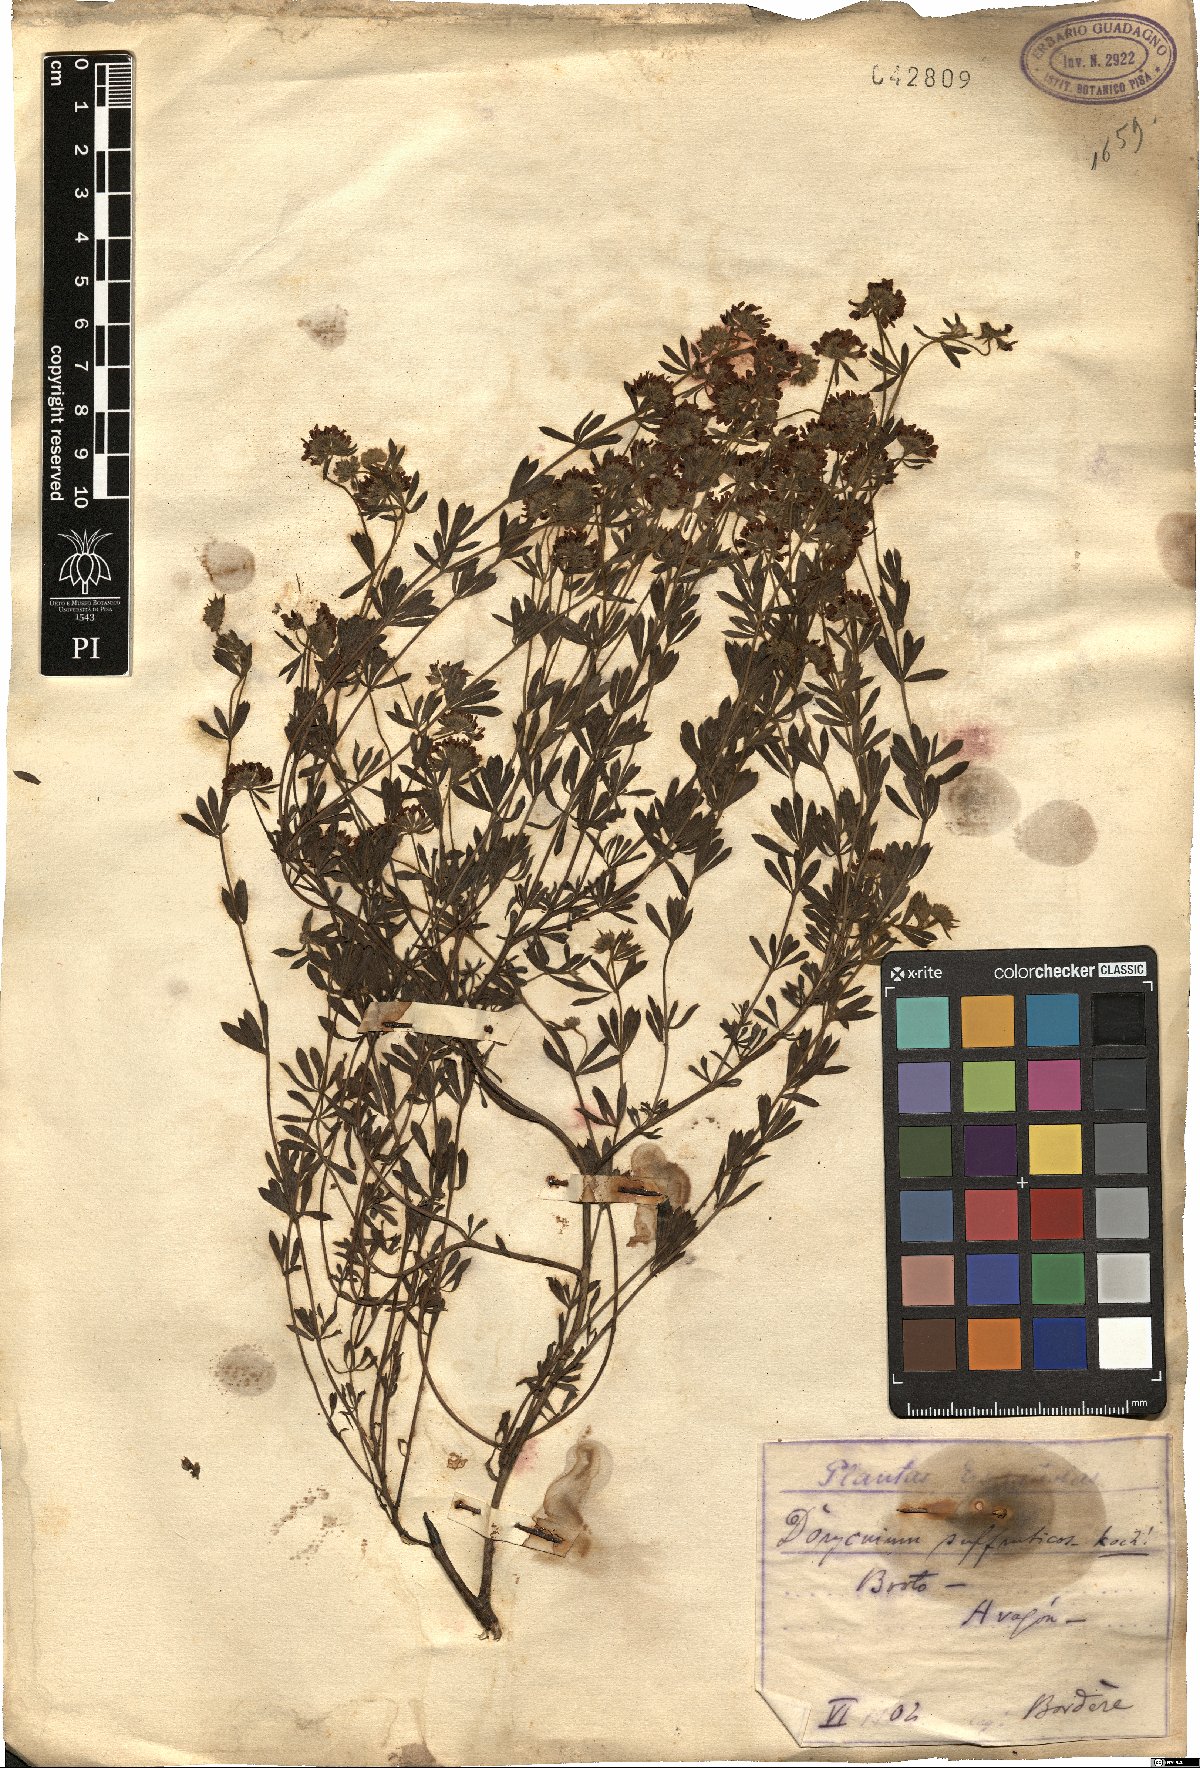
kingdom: Plantae
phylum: Tracheophyta
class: Magnoliopsida
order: Fabales
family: Fabaceae
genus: Lotus
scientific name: Lotus dorycnium
